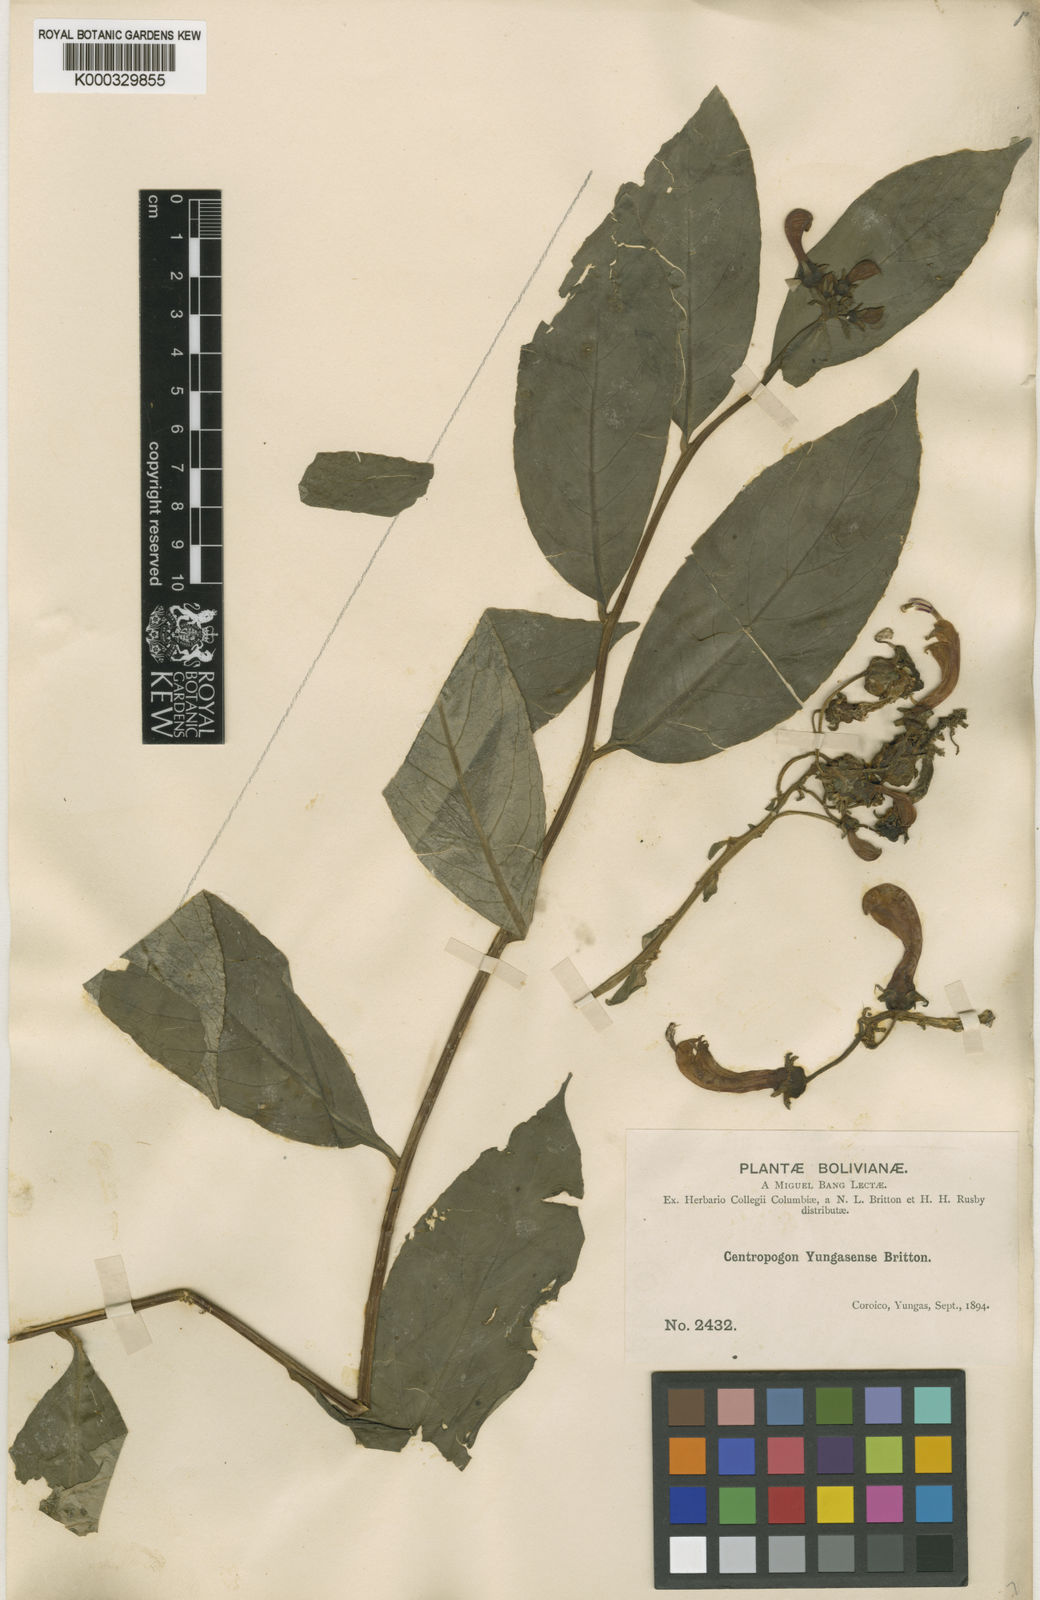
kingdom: Plantae
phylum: Tracheophyta
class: Magnoliopsida
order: Asterales
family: Campanulaceae
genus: Centropogon
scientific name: Centropogon yungasensis
